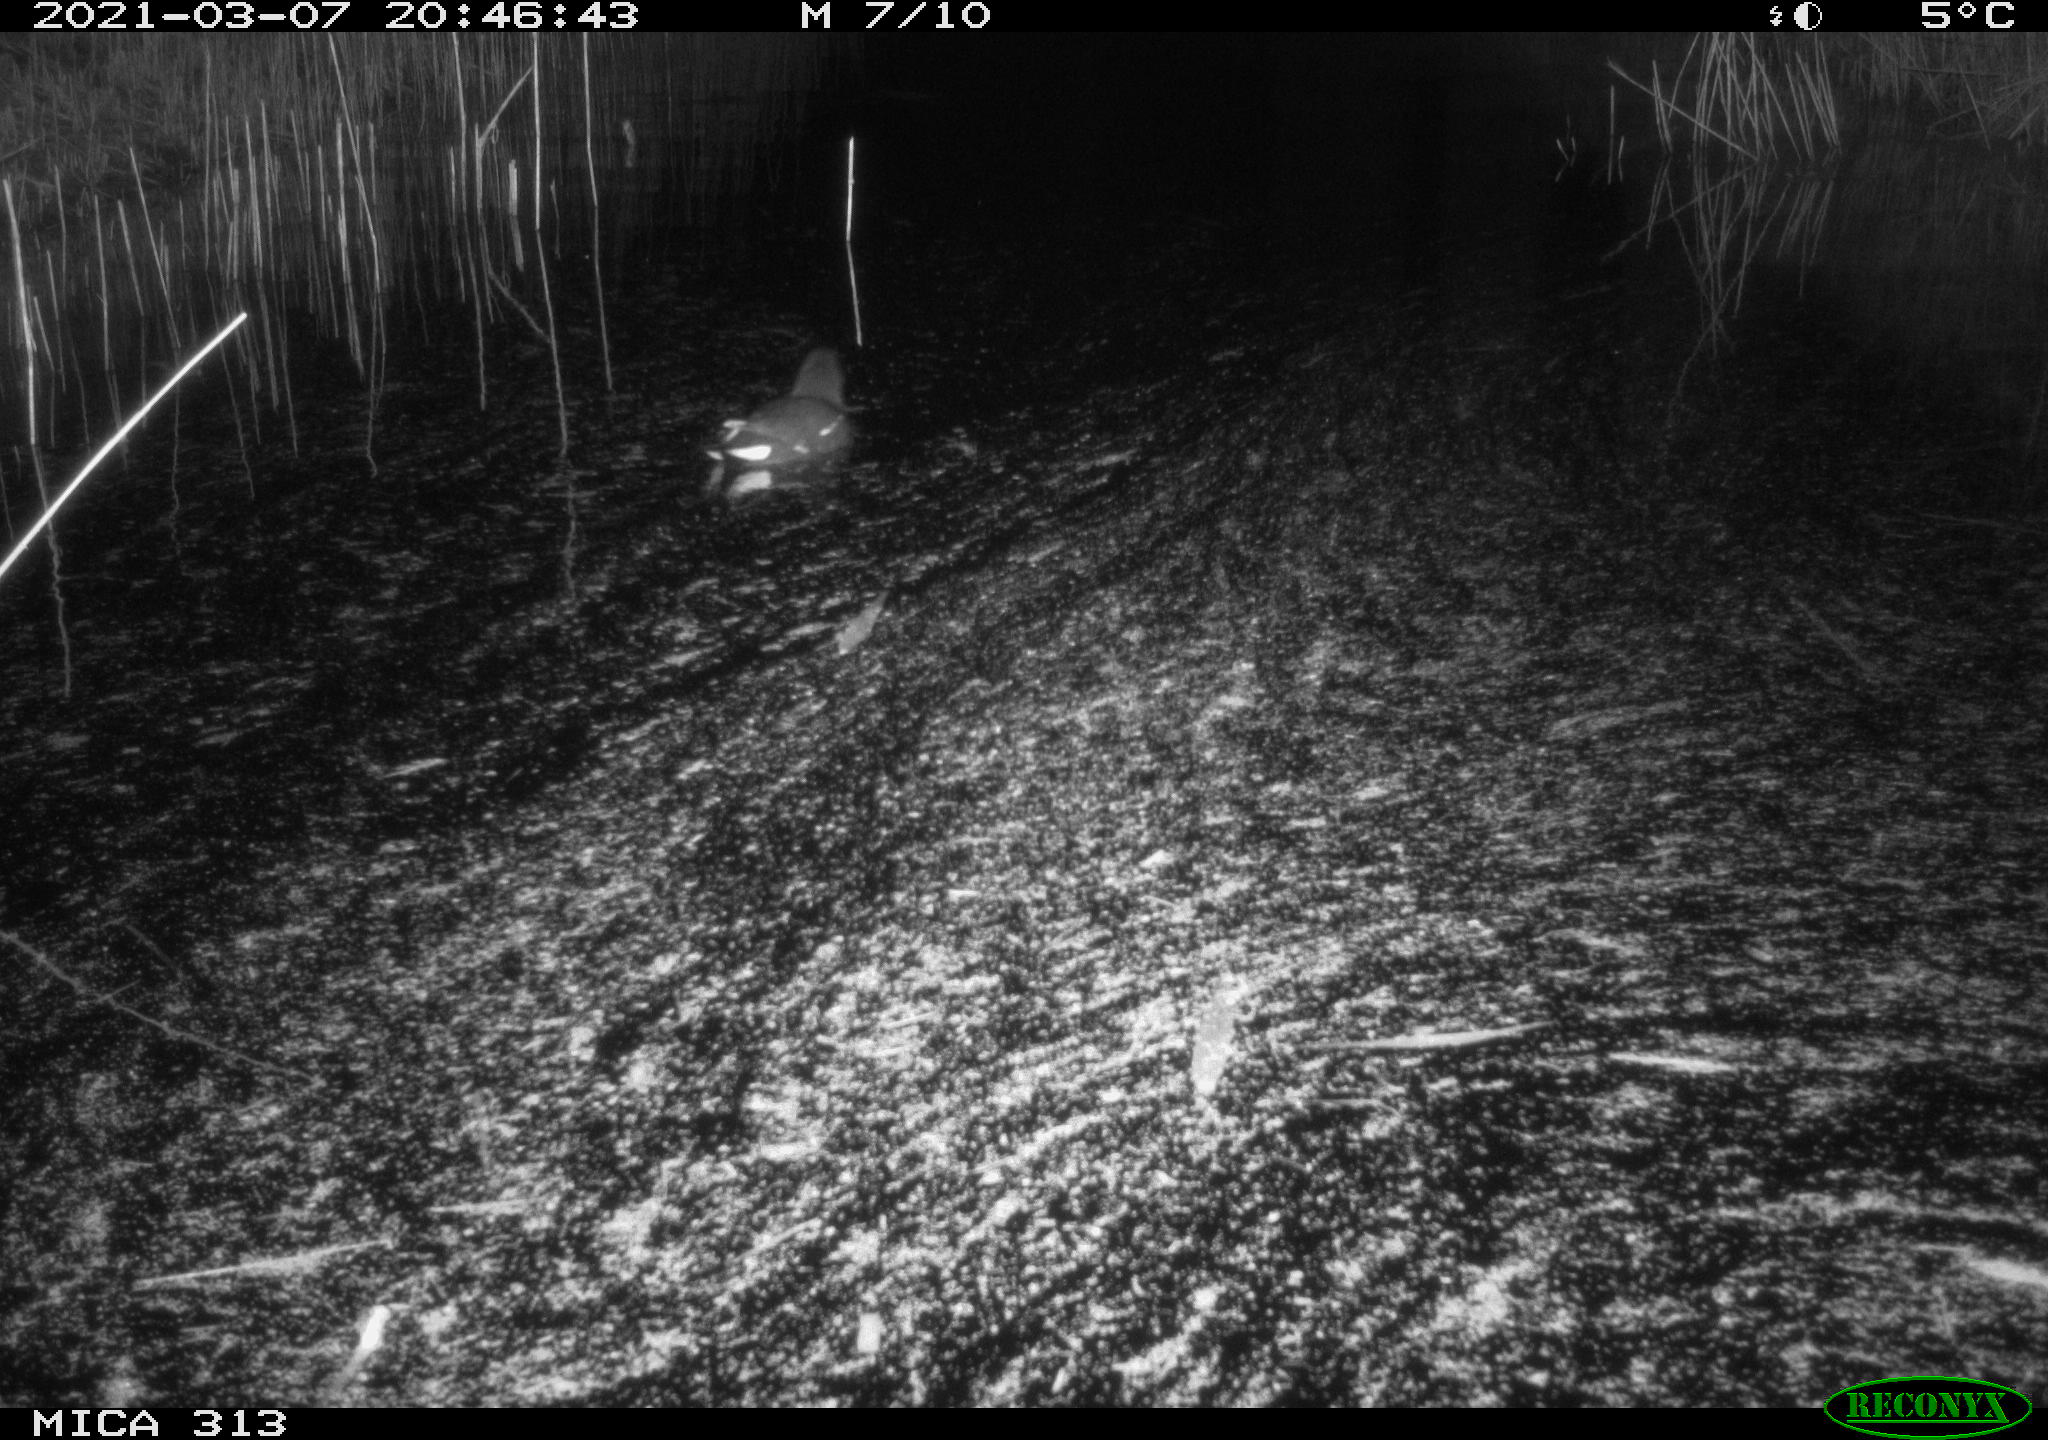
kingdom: Animalia
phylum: Chordata
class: Aves
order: Gruiformes
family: Rallidae
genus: Gallinula
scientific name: Gallinula chloropus
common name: Common moorhen
